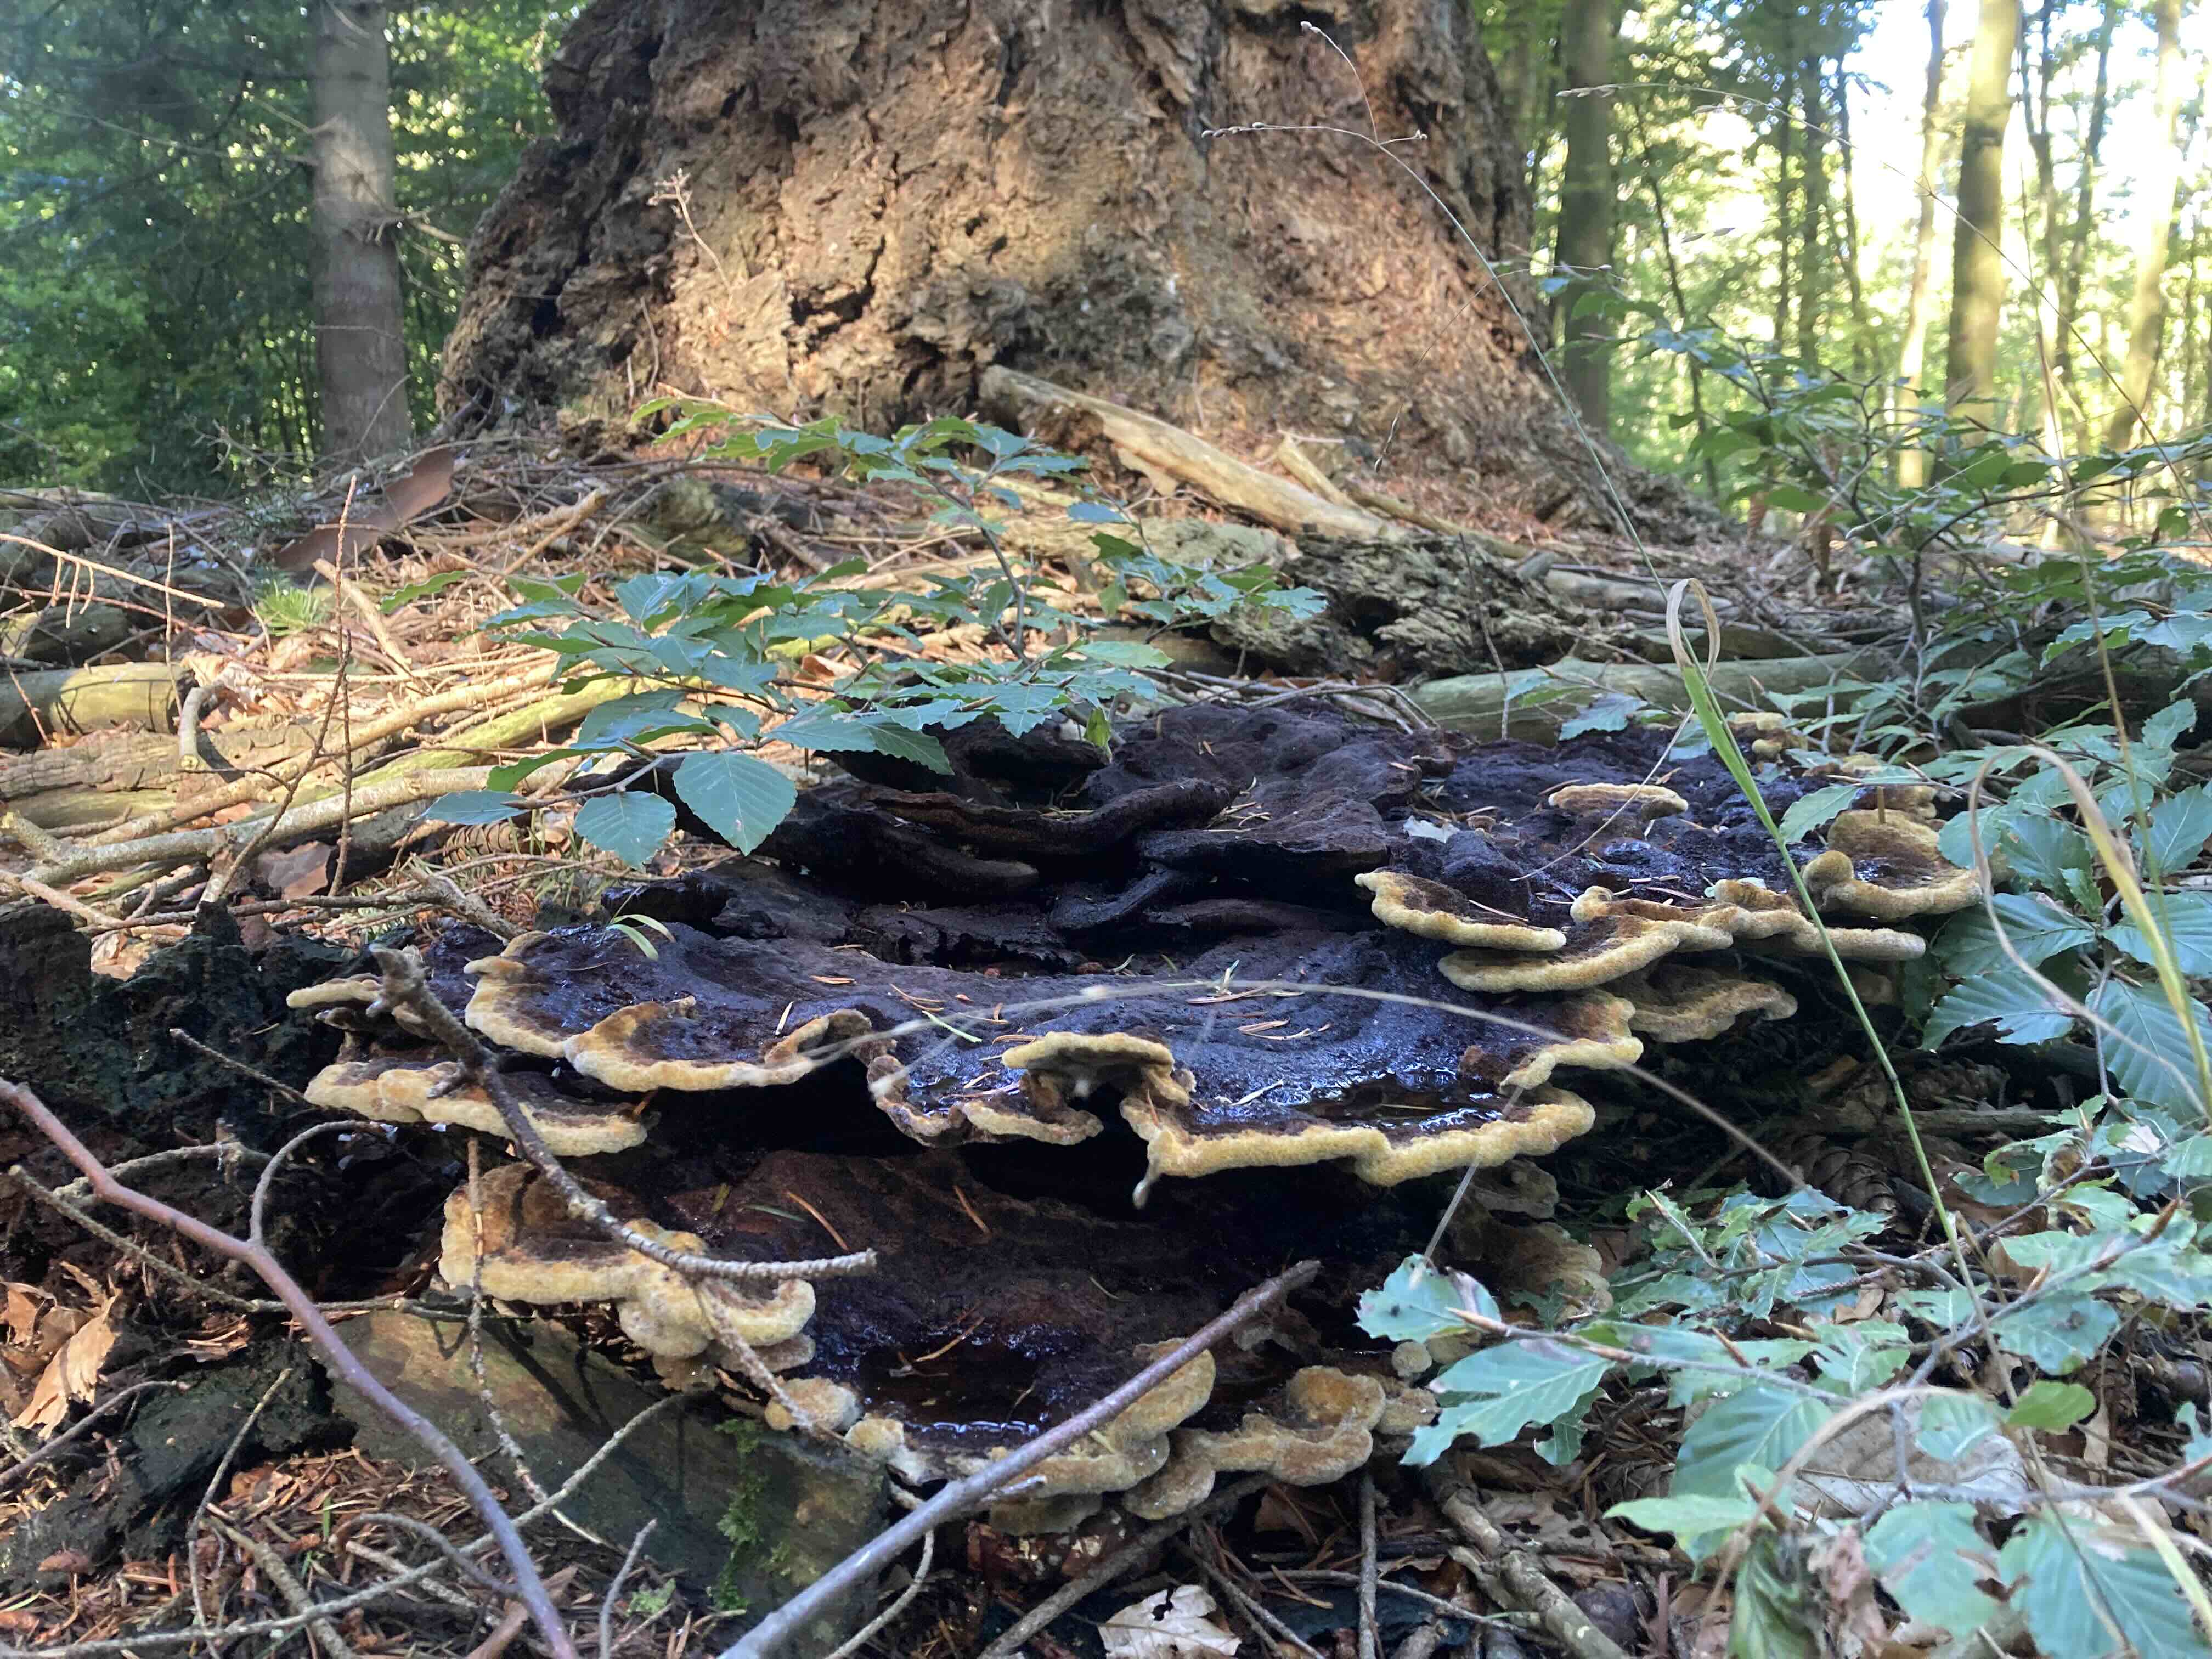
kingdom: Fungi
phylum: Basidiomycota
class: Agaricomycetes
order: Polyporales
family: Laetiporaceae
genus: Phaeolus
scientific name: Phaeolus schweinitzii
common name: brunporesvamp
